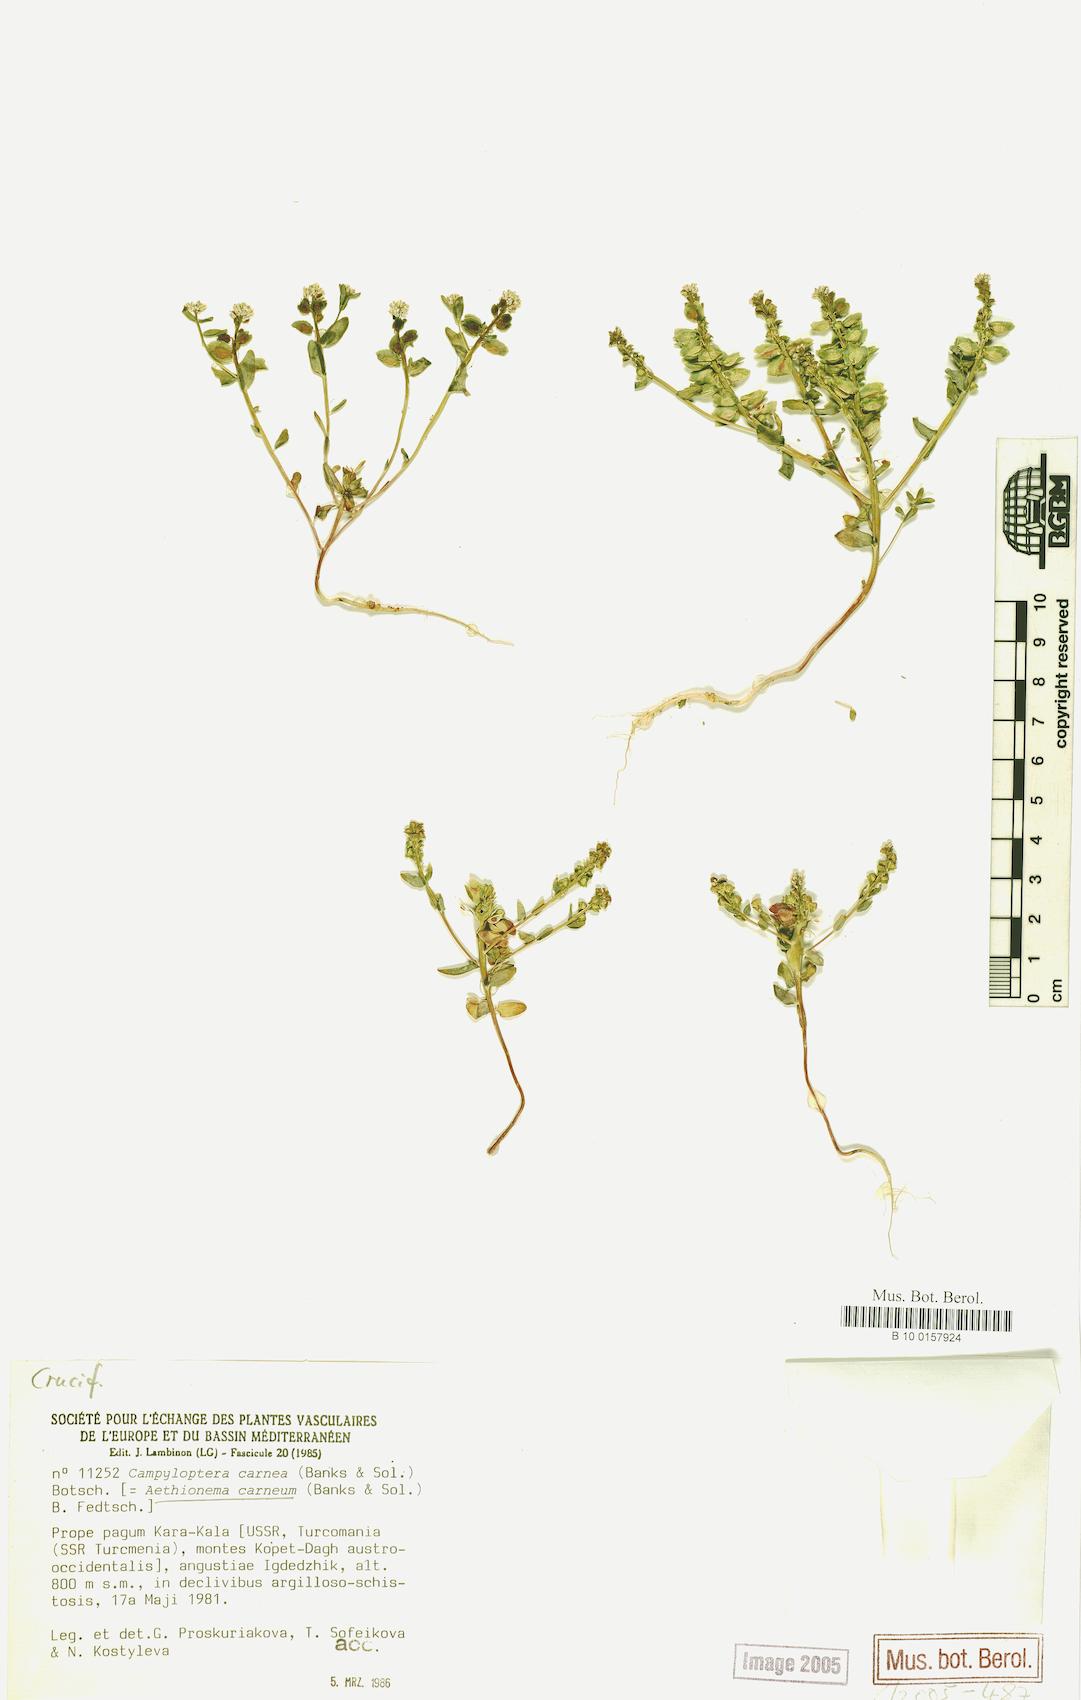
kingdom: Plantae
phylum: Tracheophyta
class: Magnoliopsida
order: Brassicales
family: Brassicaceae
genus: Aethionema
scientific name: Aethionema carneum
